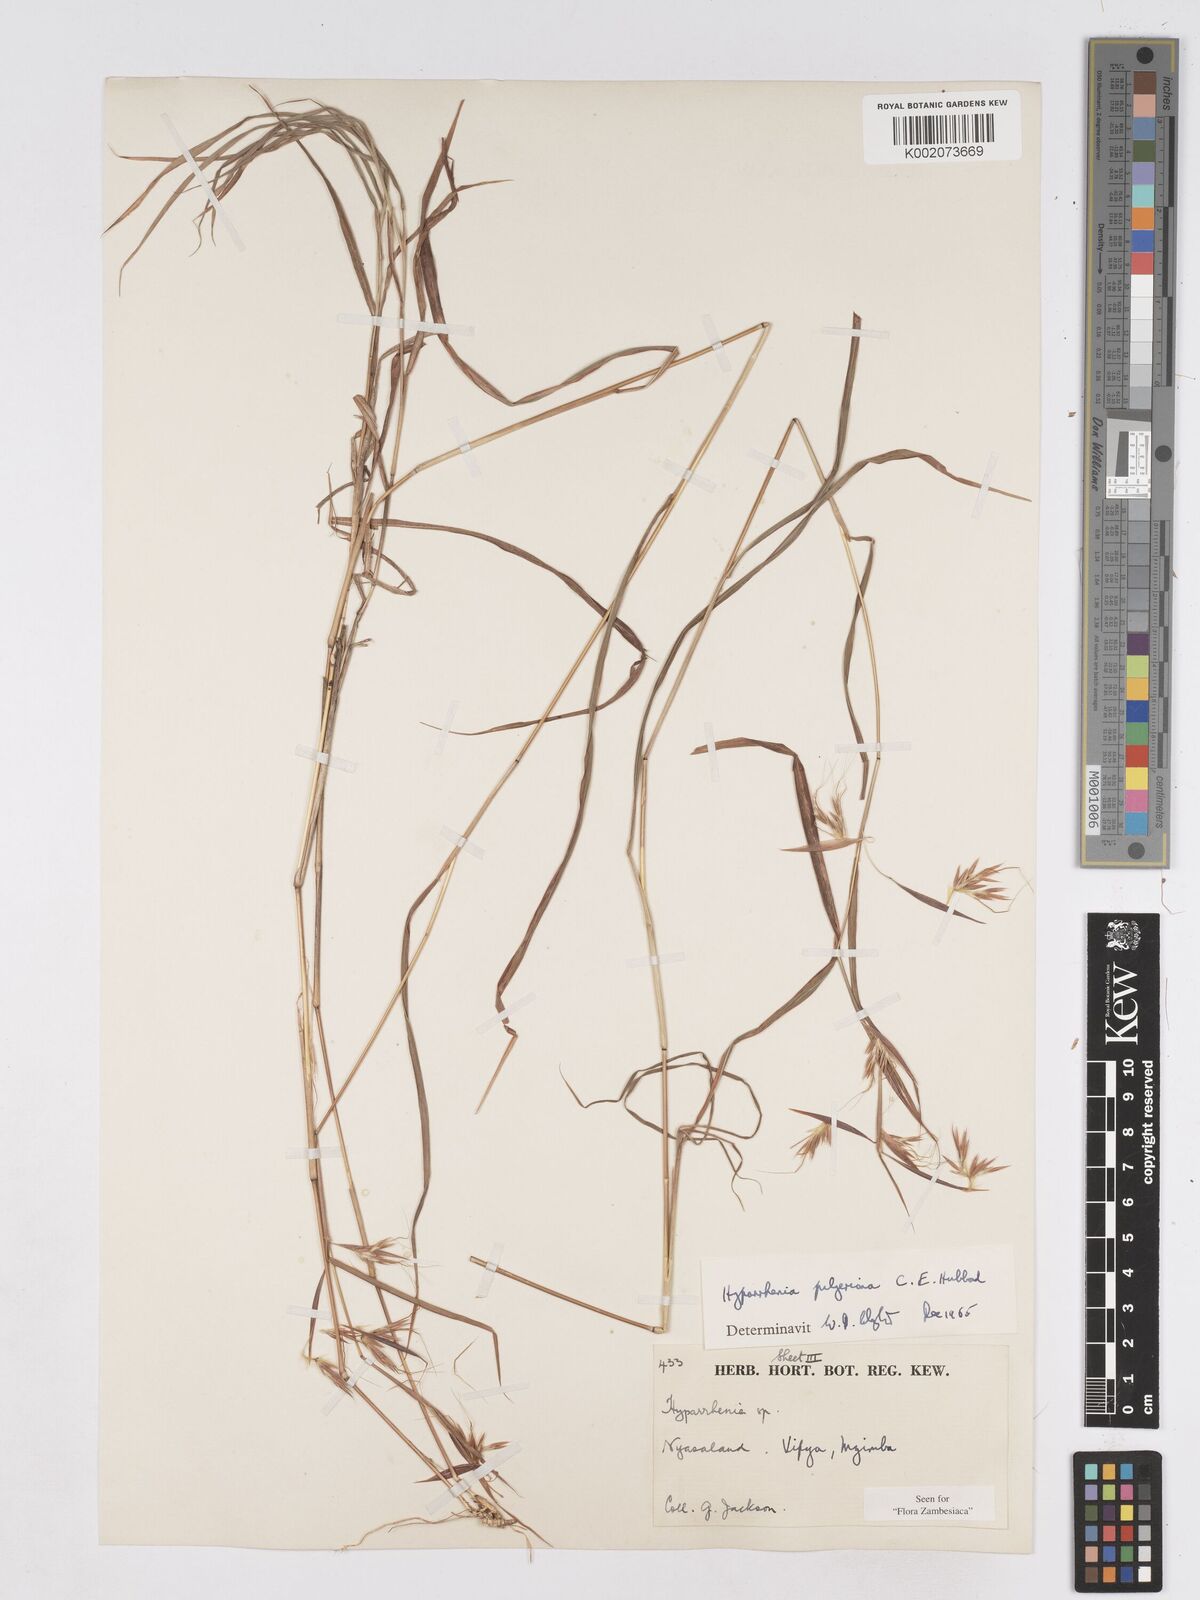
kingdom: Plantae
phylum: Tracheophyta
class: Liliopsida
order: Poales
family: Poaceae
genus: Hyparrhenia
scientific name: Hyparrhenia pilgeriana
